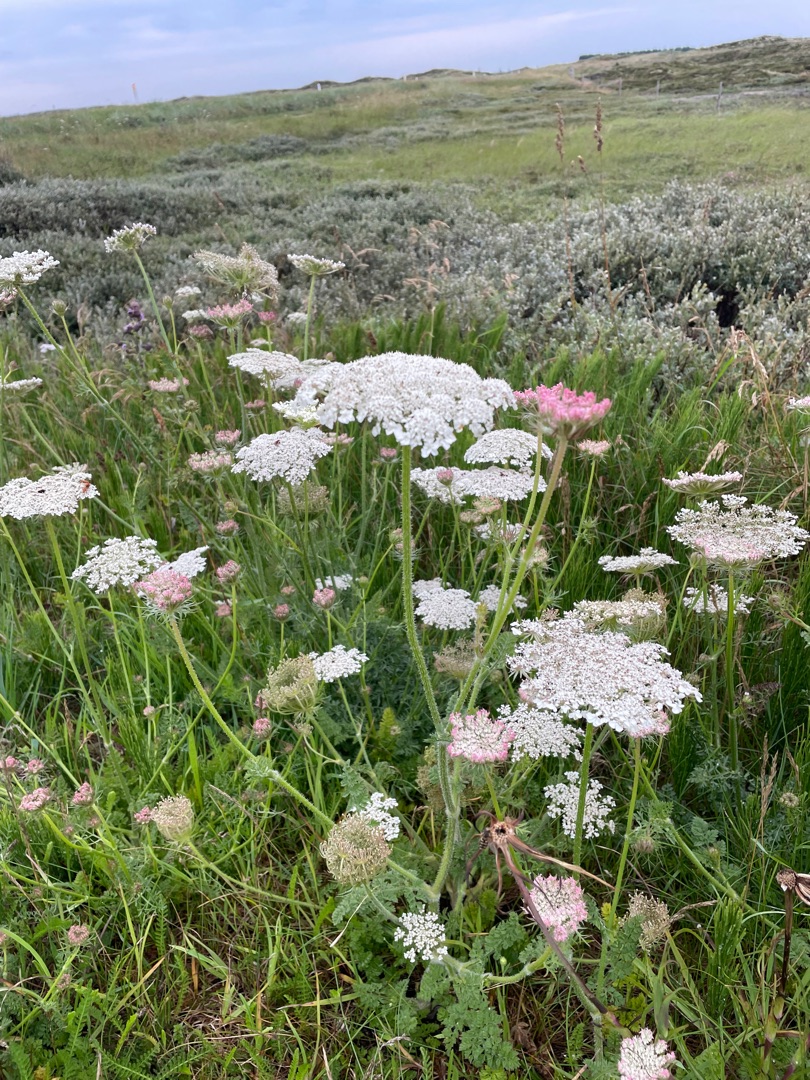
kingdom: Plantae
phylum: Tracheophyta
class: Magnoliopsida
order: Apiales
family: Apiaceae
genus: Daucus
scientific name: Daucus carota
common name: Gulerod
